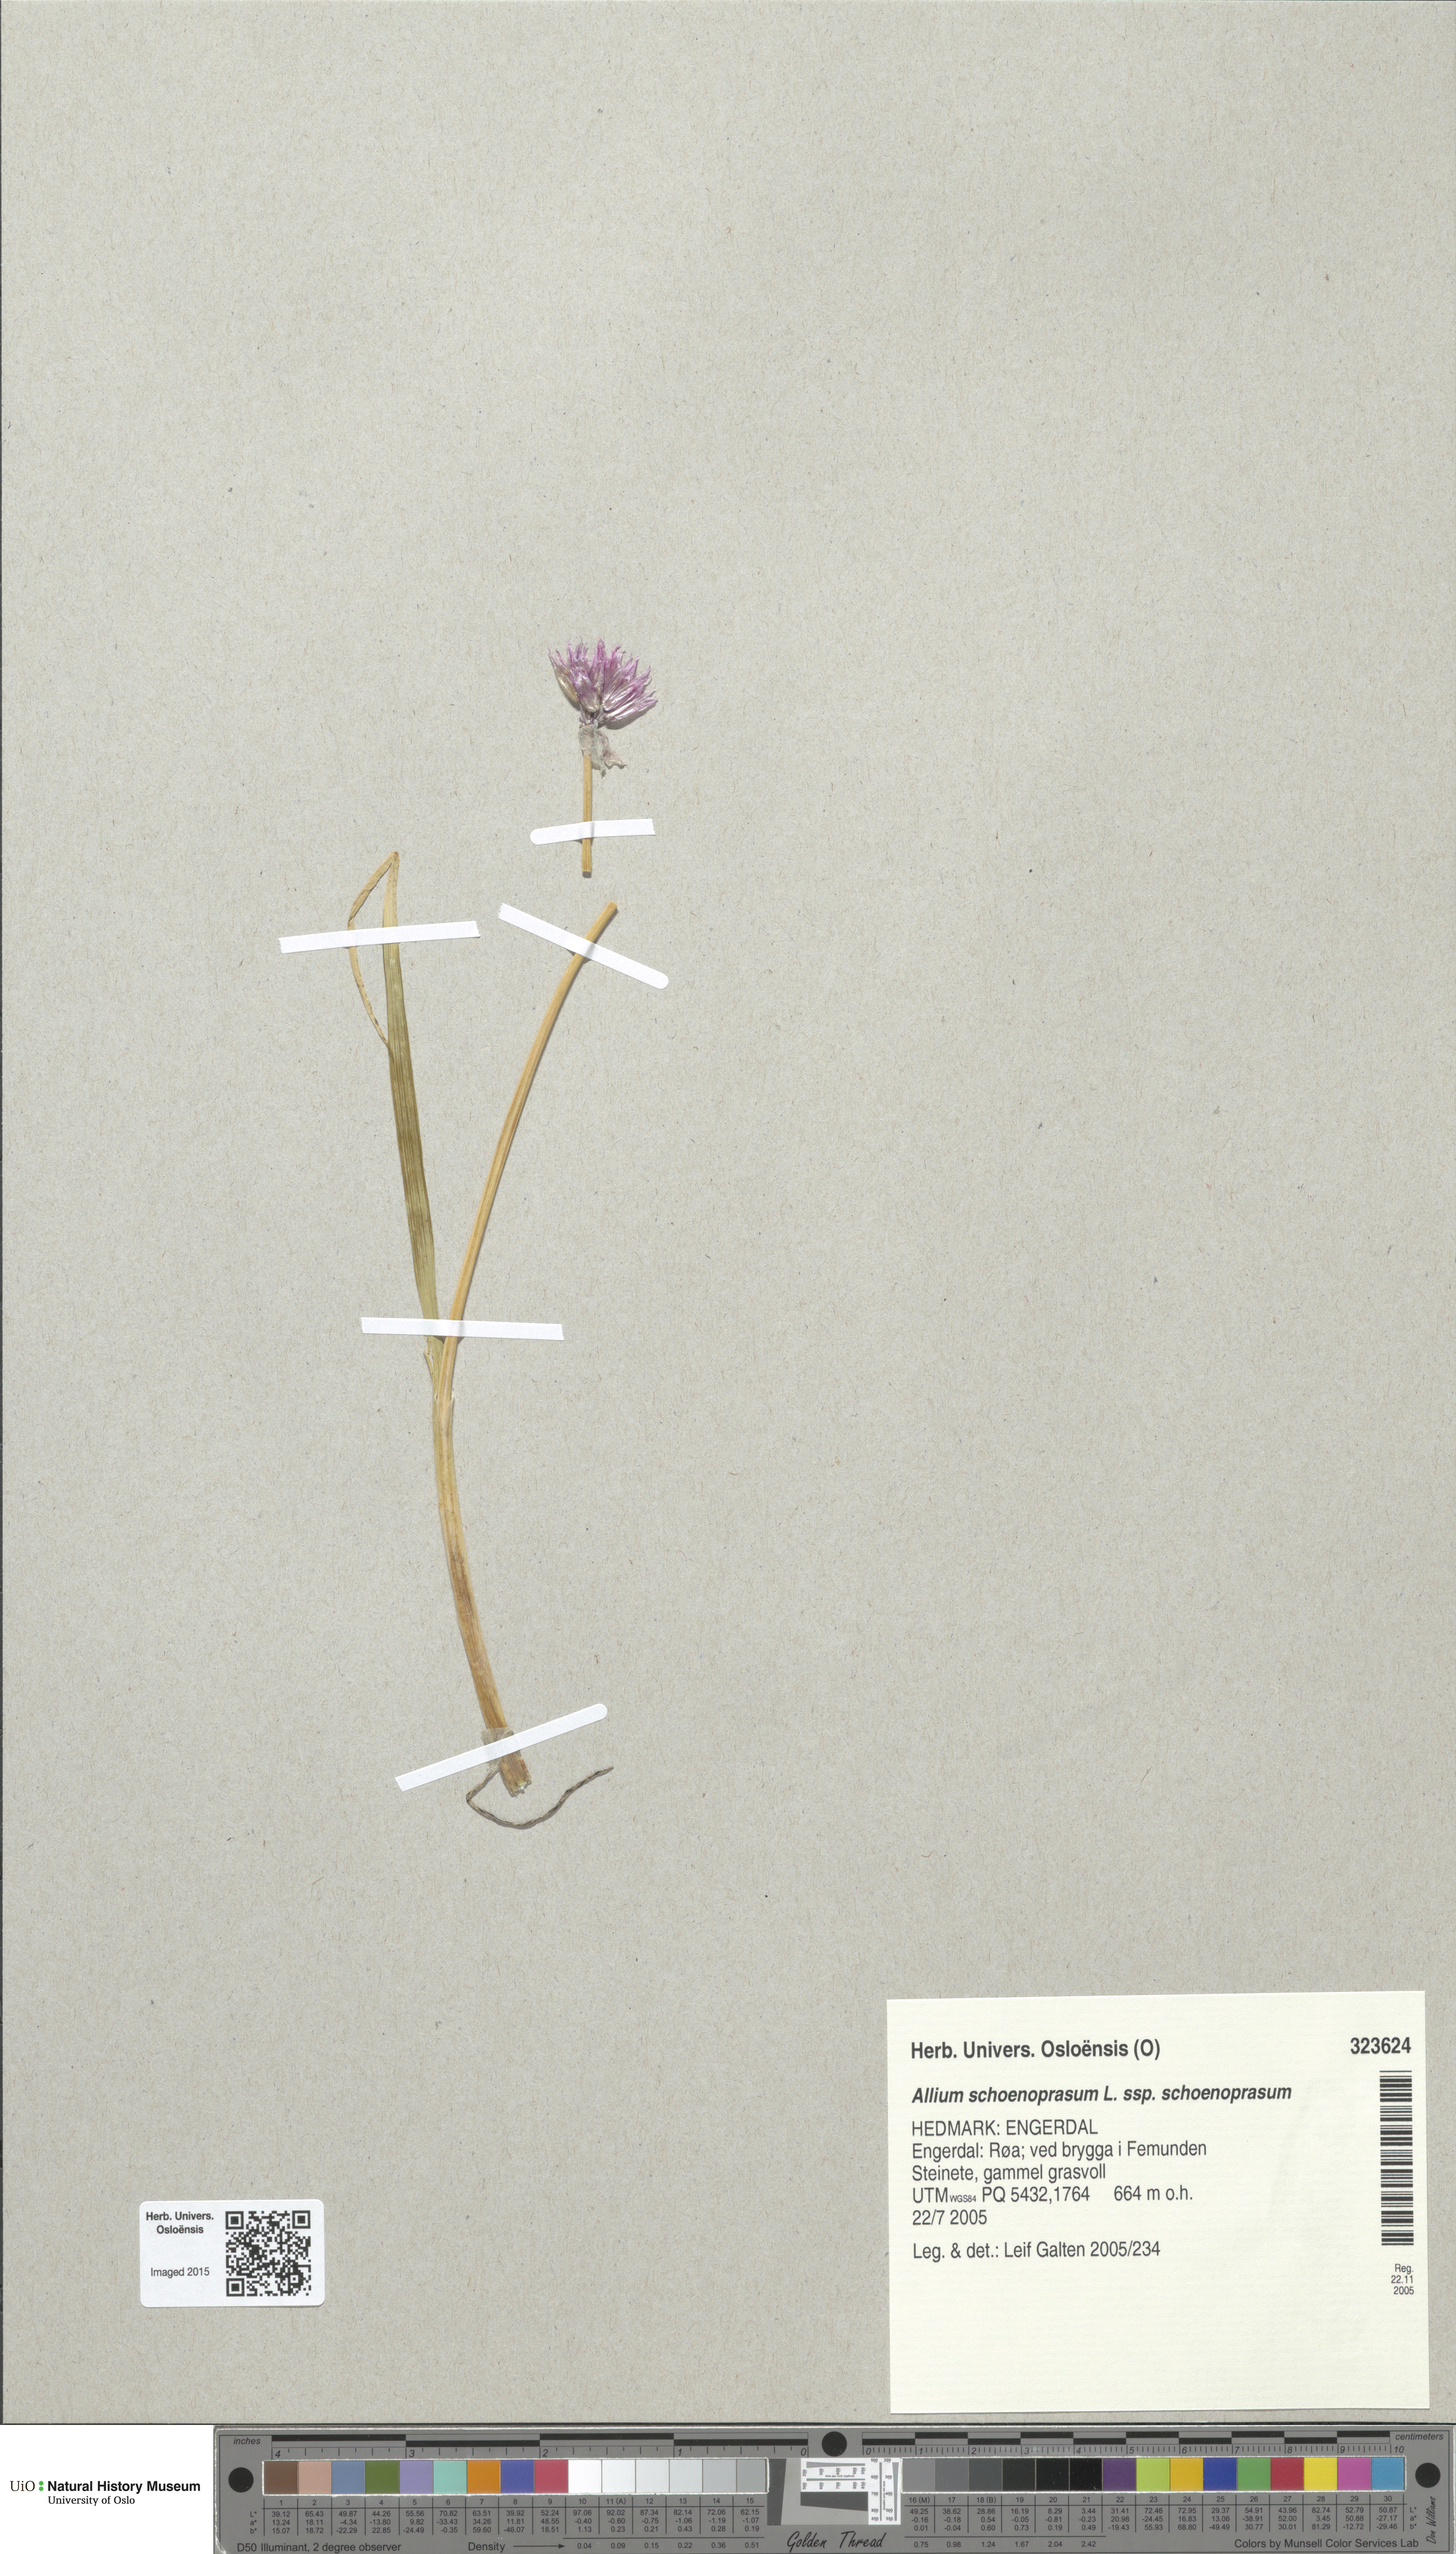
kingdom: Plantae
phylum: Tracheophyta
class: Liliopsida
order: Asparagales
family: Amaryllidaceae
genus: Allium
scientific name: Allium schoenoprasum
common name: Chives
